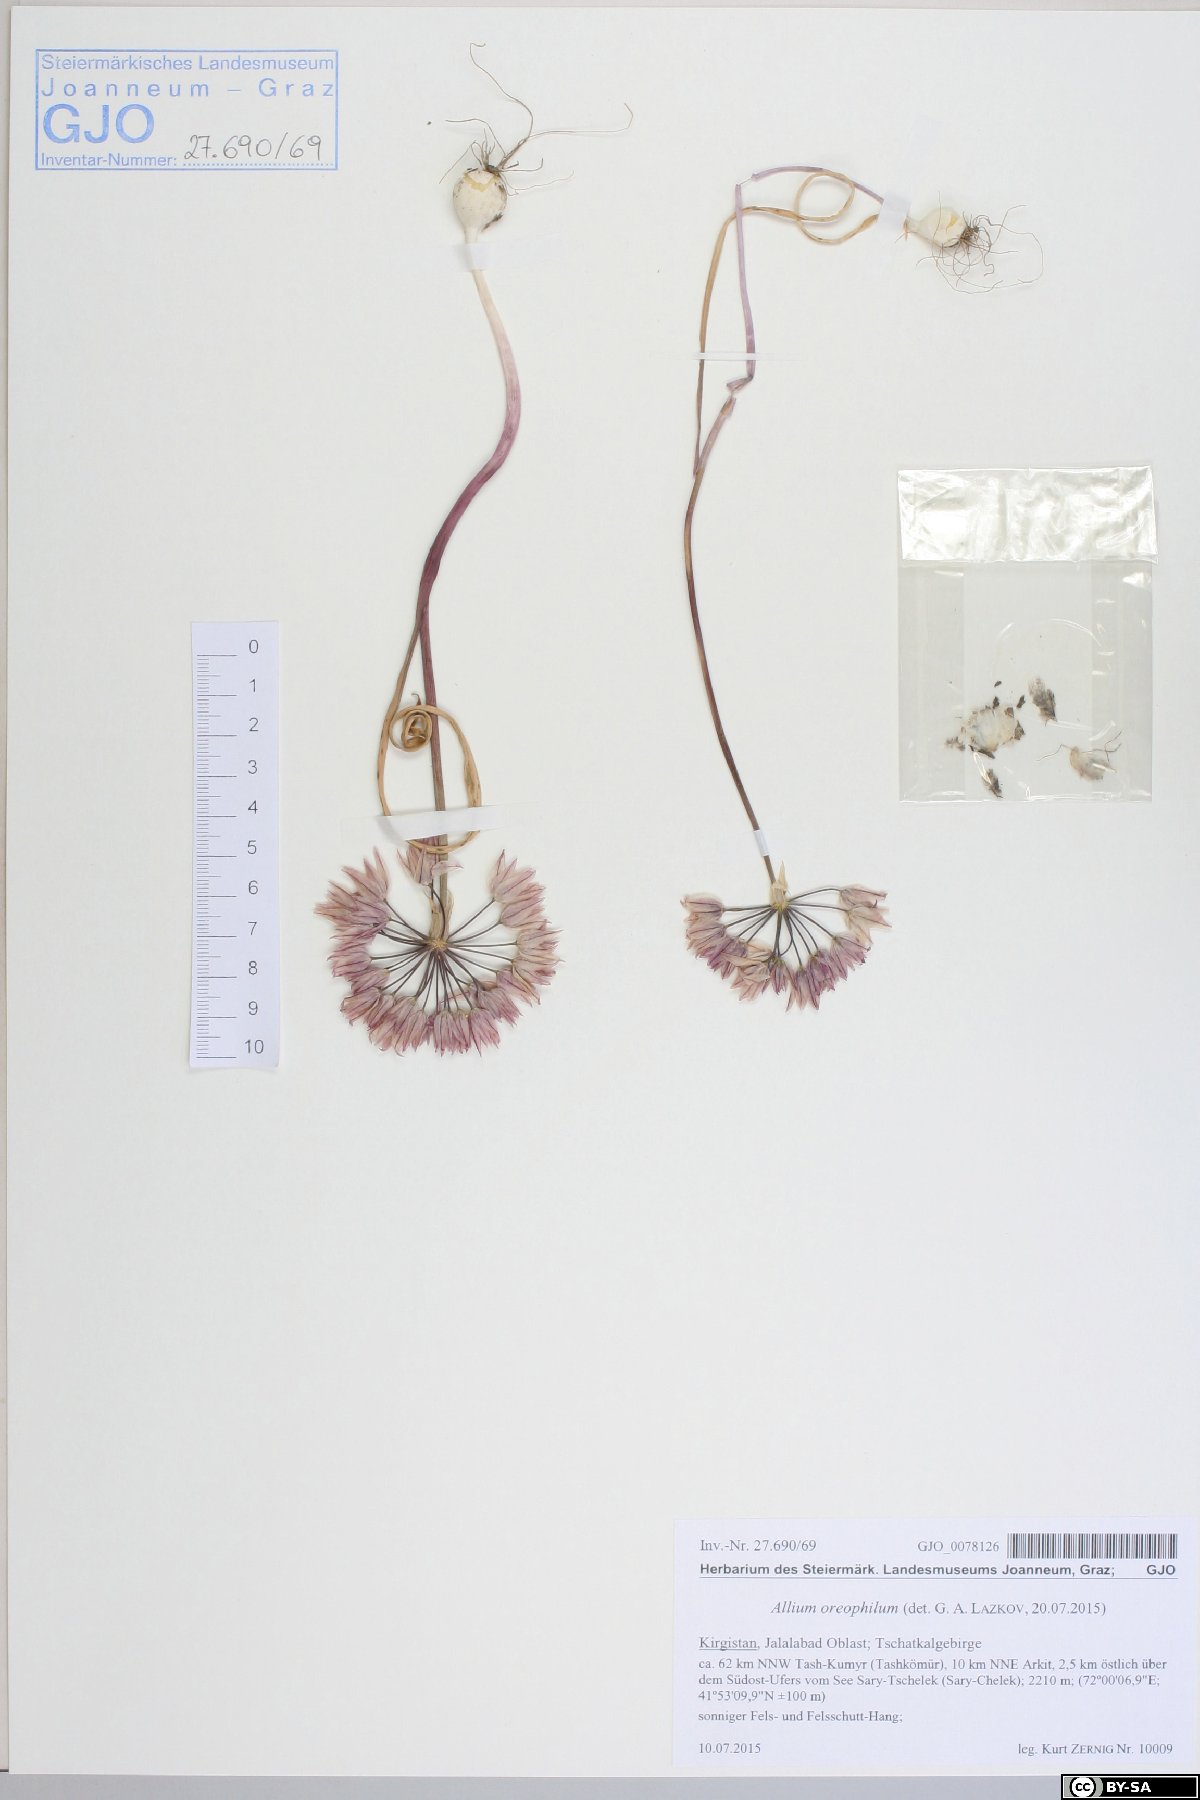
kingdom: Plantae
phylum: Tracheophyta
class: Liliopsida
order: Asparagales
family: Amaryllidaceae
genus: Allium
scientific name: Allium oreophilum
